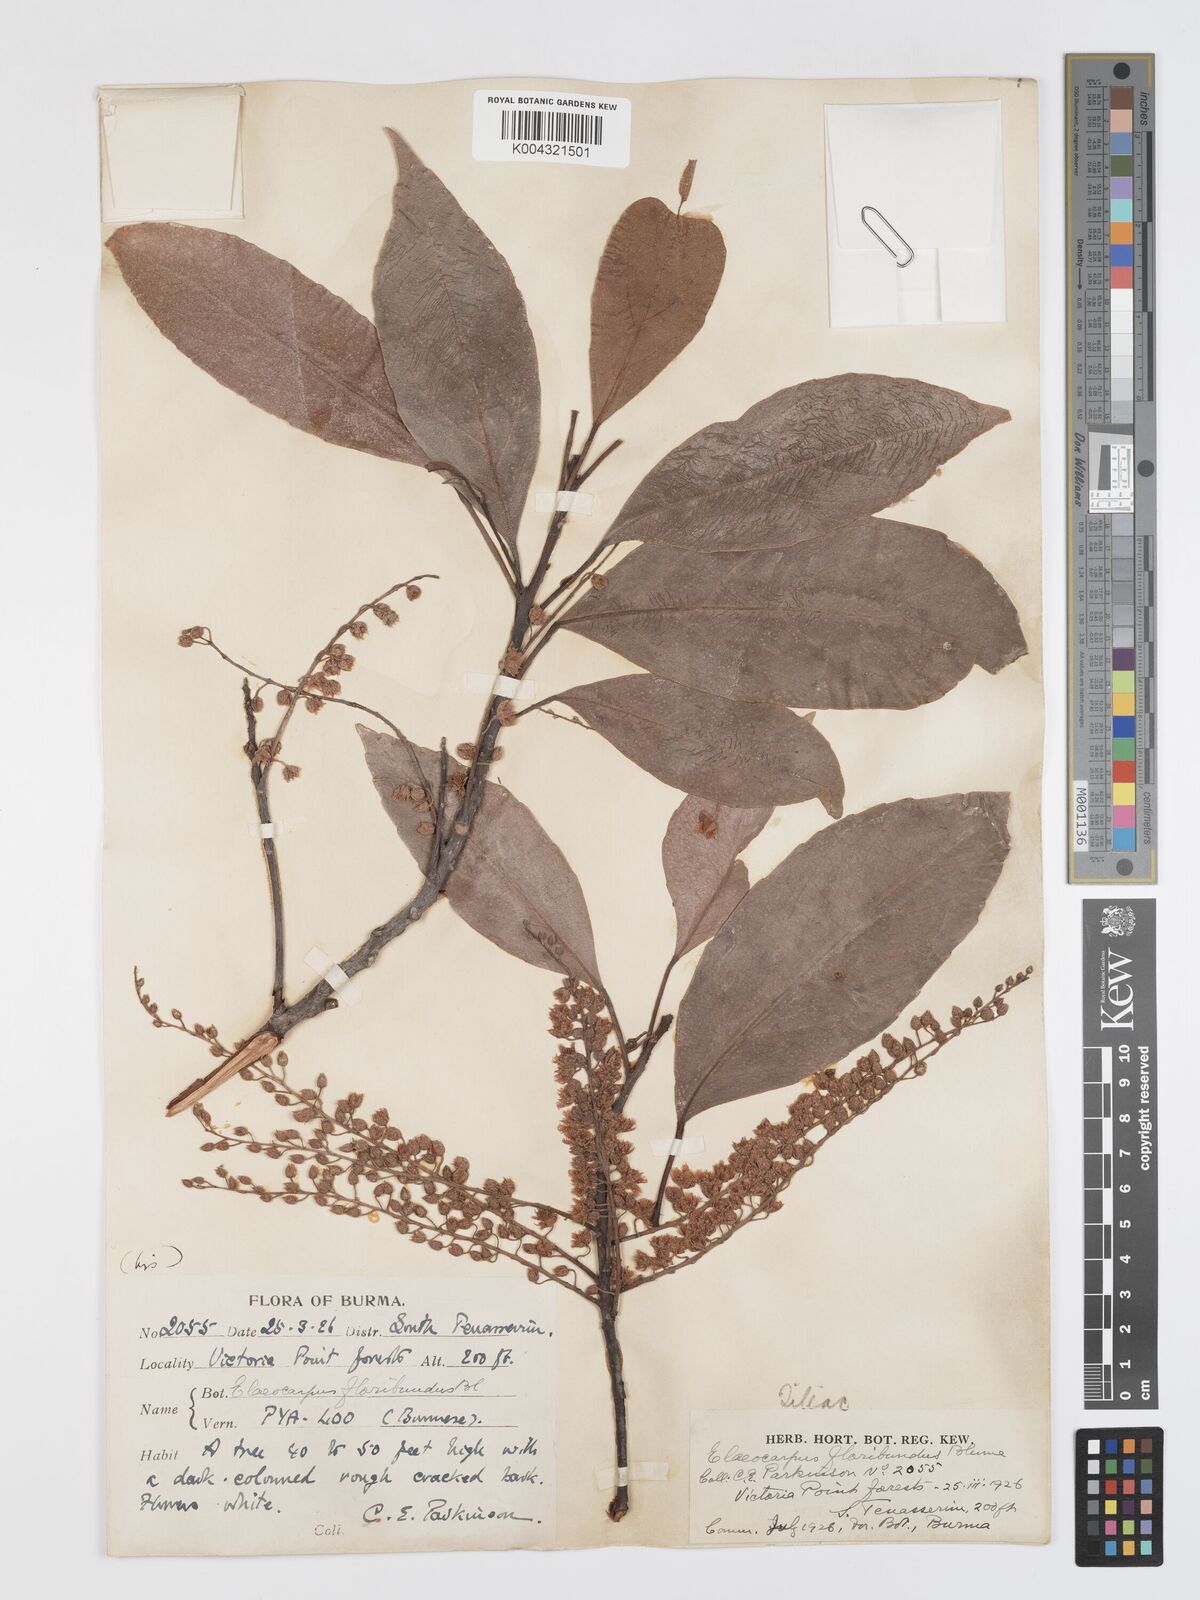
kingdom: Plantae
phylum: Tracheophyta
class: Magnoliopsida
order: Oxalidales
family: Elaeocarpaceae
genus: Elaeocarpus
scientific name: Elaeocarpus floribundus
